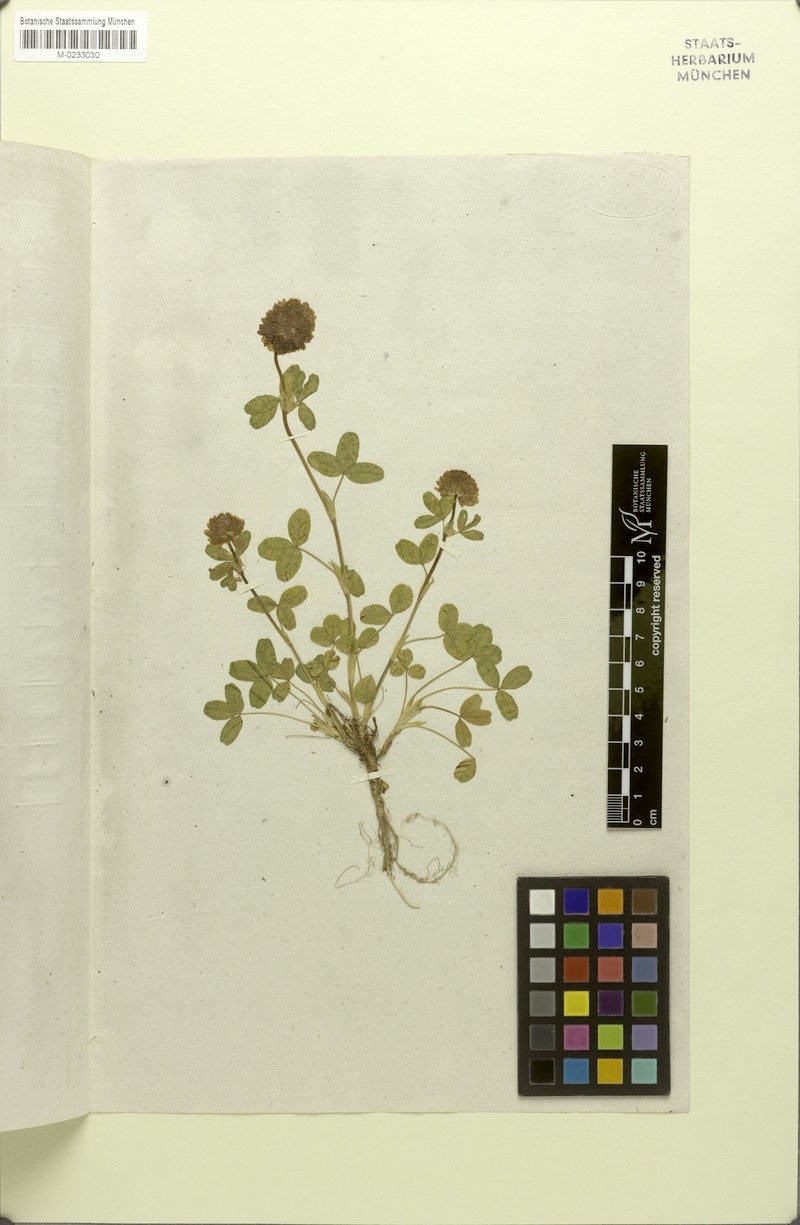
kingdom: Plantae
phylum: Tracheophyta
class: Magnoliopsida
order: Fabales
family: Fabaceae
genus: Trifolium
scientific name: Trifolium badium
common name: Brown clover
